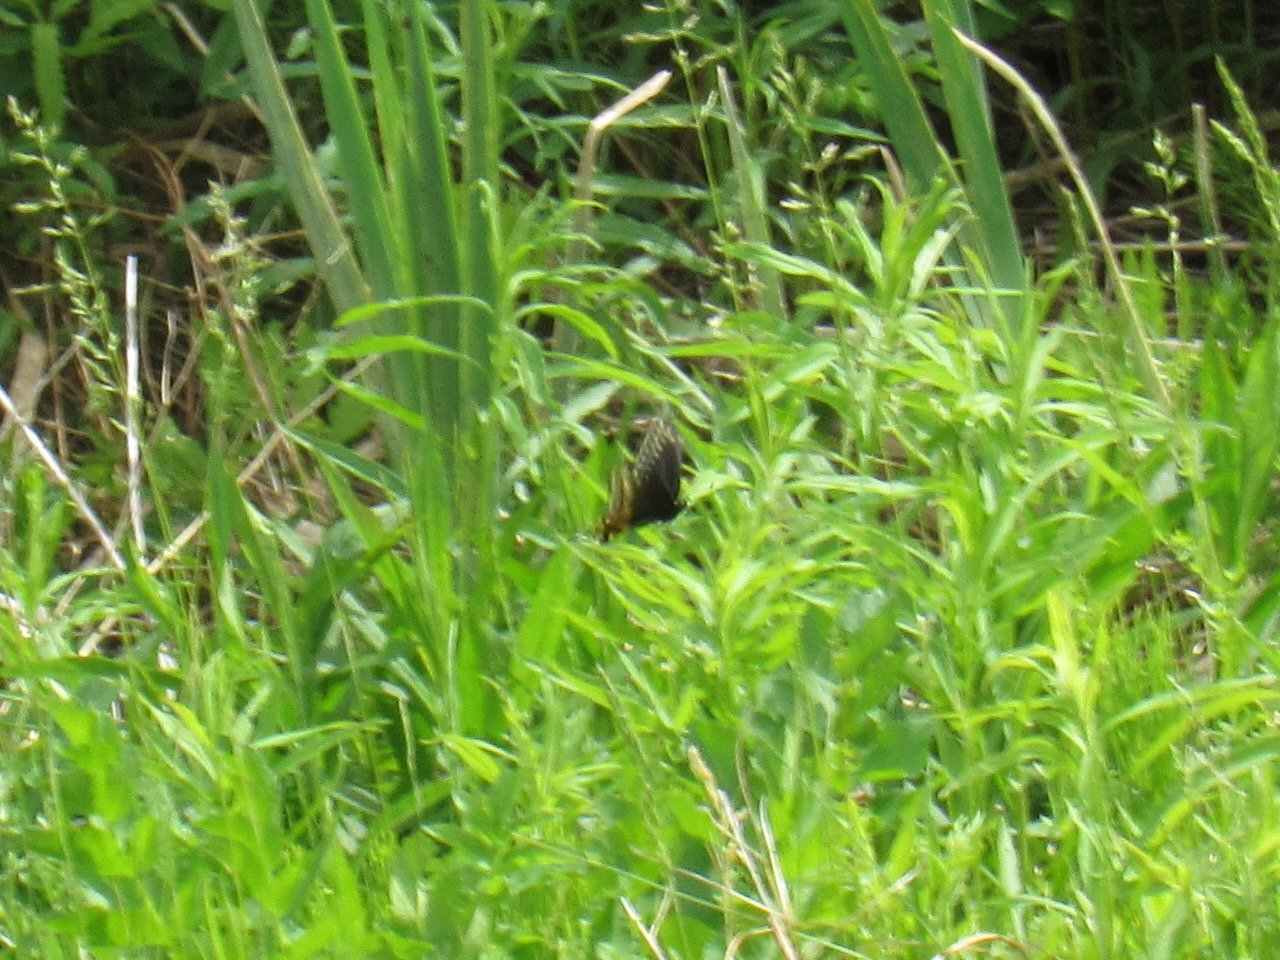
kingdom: Animalia
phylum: Arthropoda
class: Insecta
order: Lepidoptera
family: Papilionidae
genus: Papilio
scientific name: Papilio polyxenes
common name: Black Swallowtail
